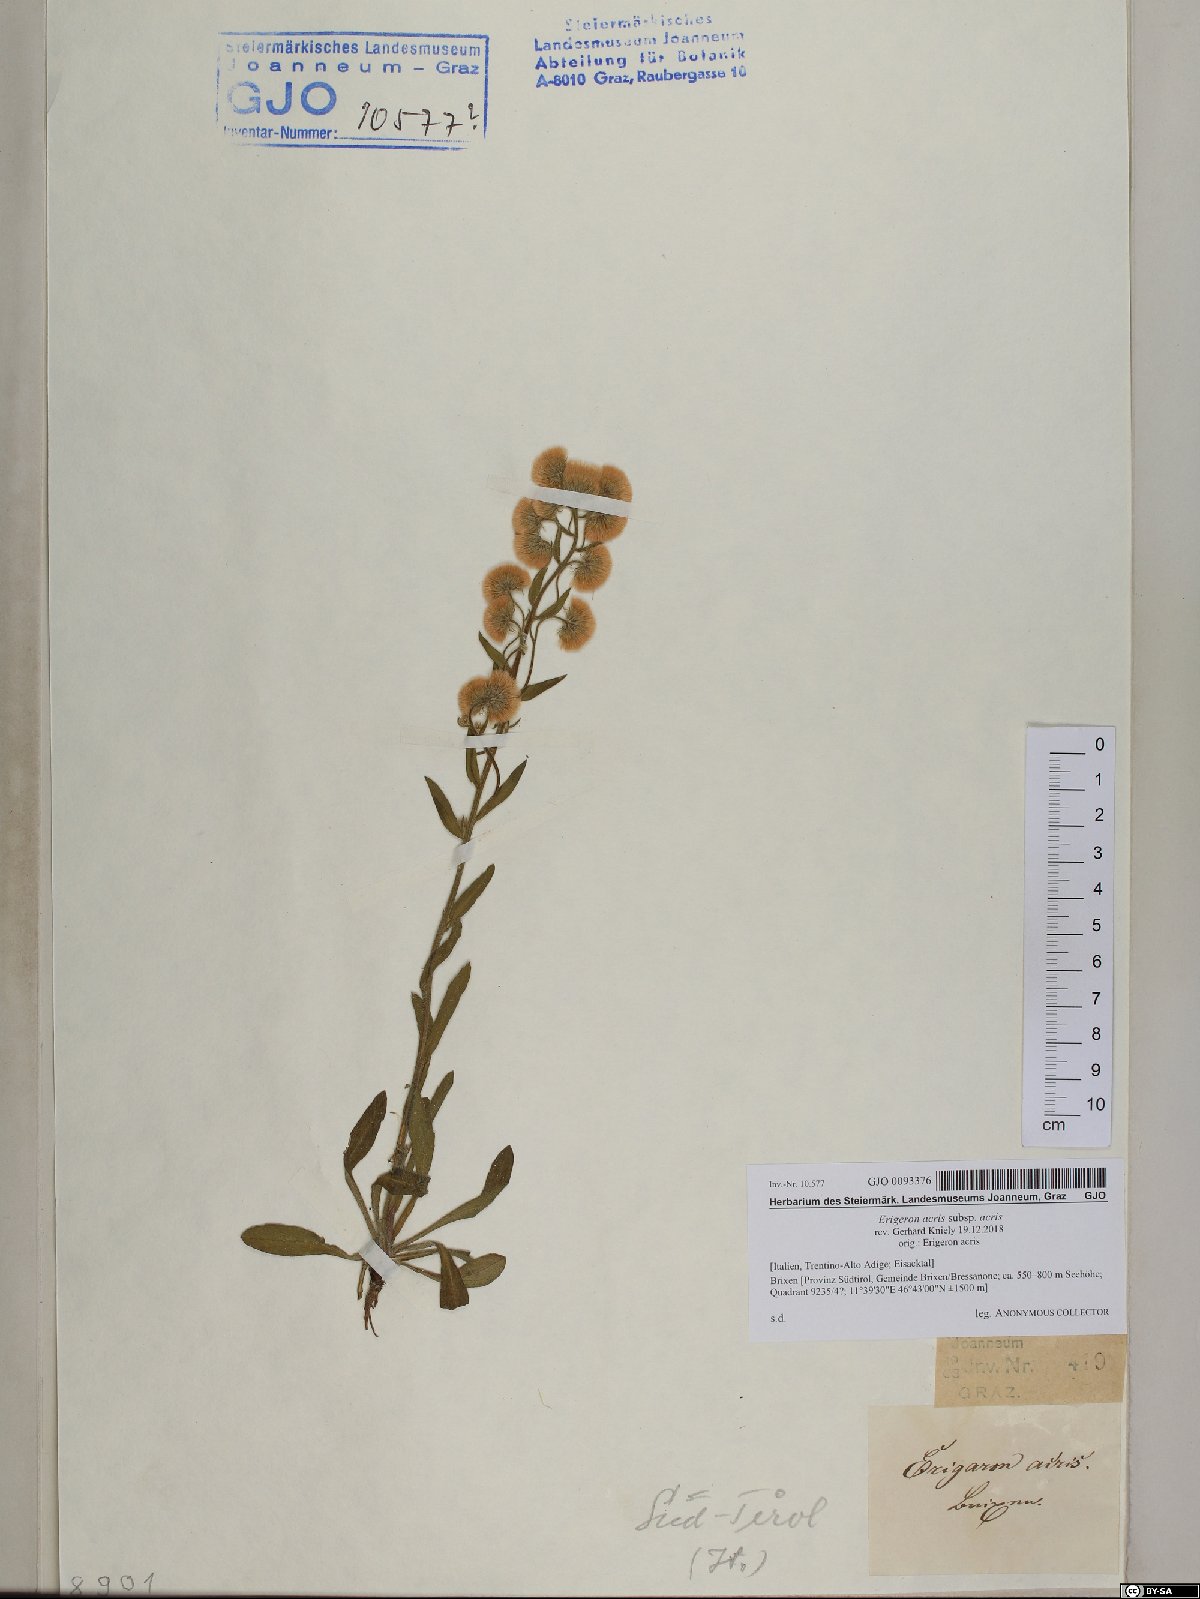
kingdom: Plantae
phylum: Tracheophyta
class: Magnoliopsida
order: Asterales
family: Asteraceae
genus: Erigeron
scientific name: Erigeron acris
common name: Blue fleabane
